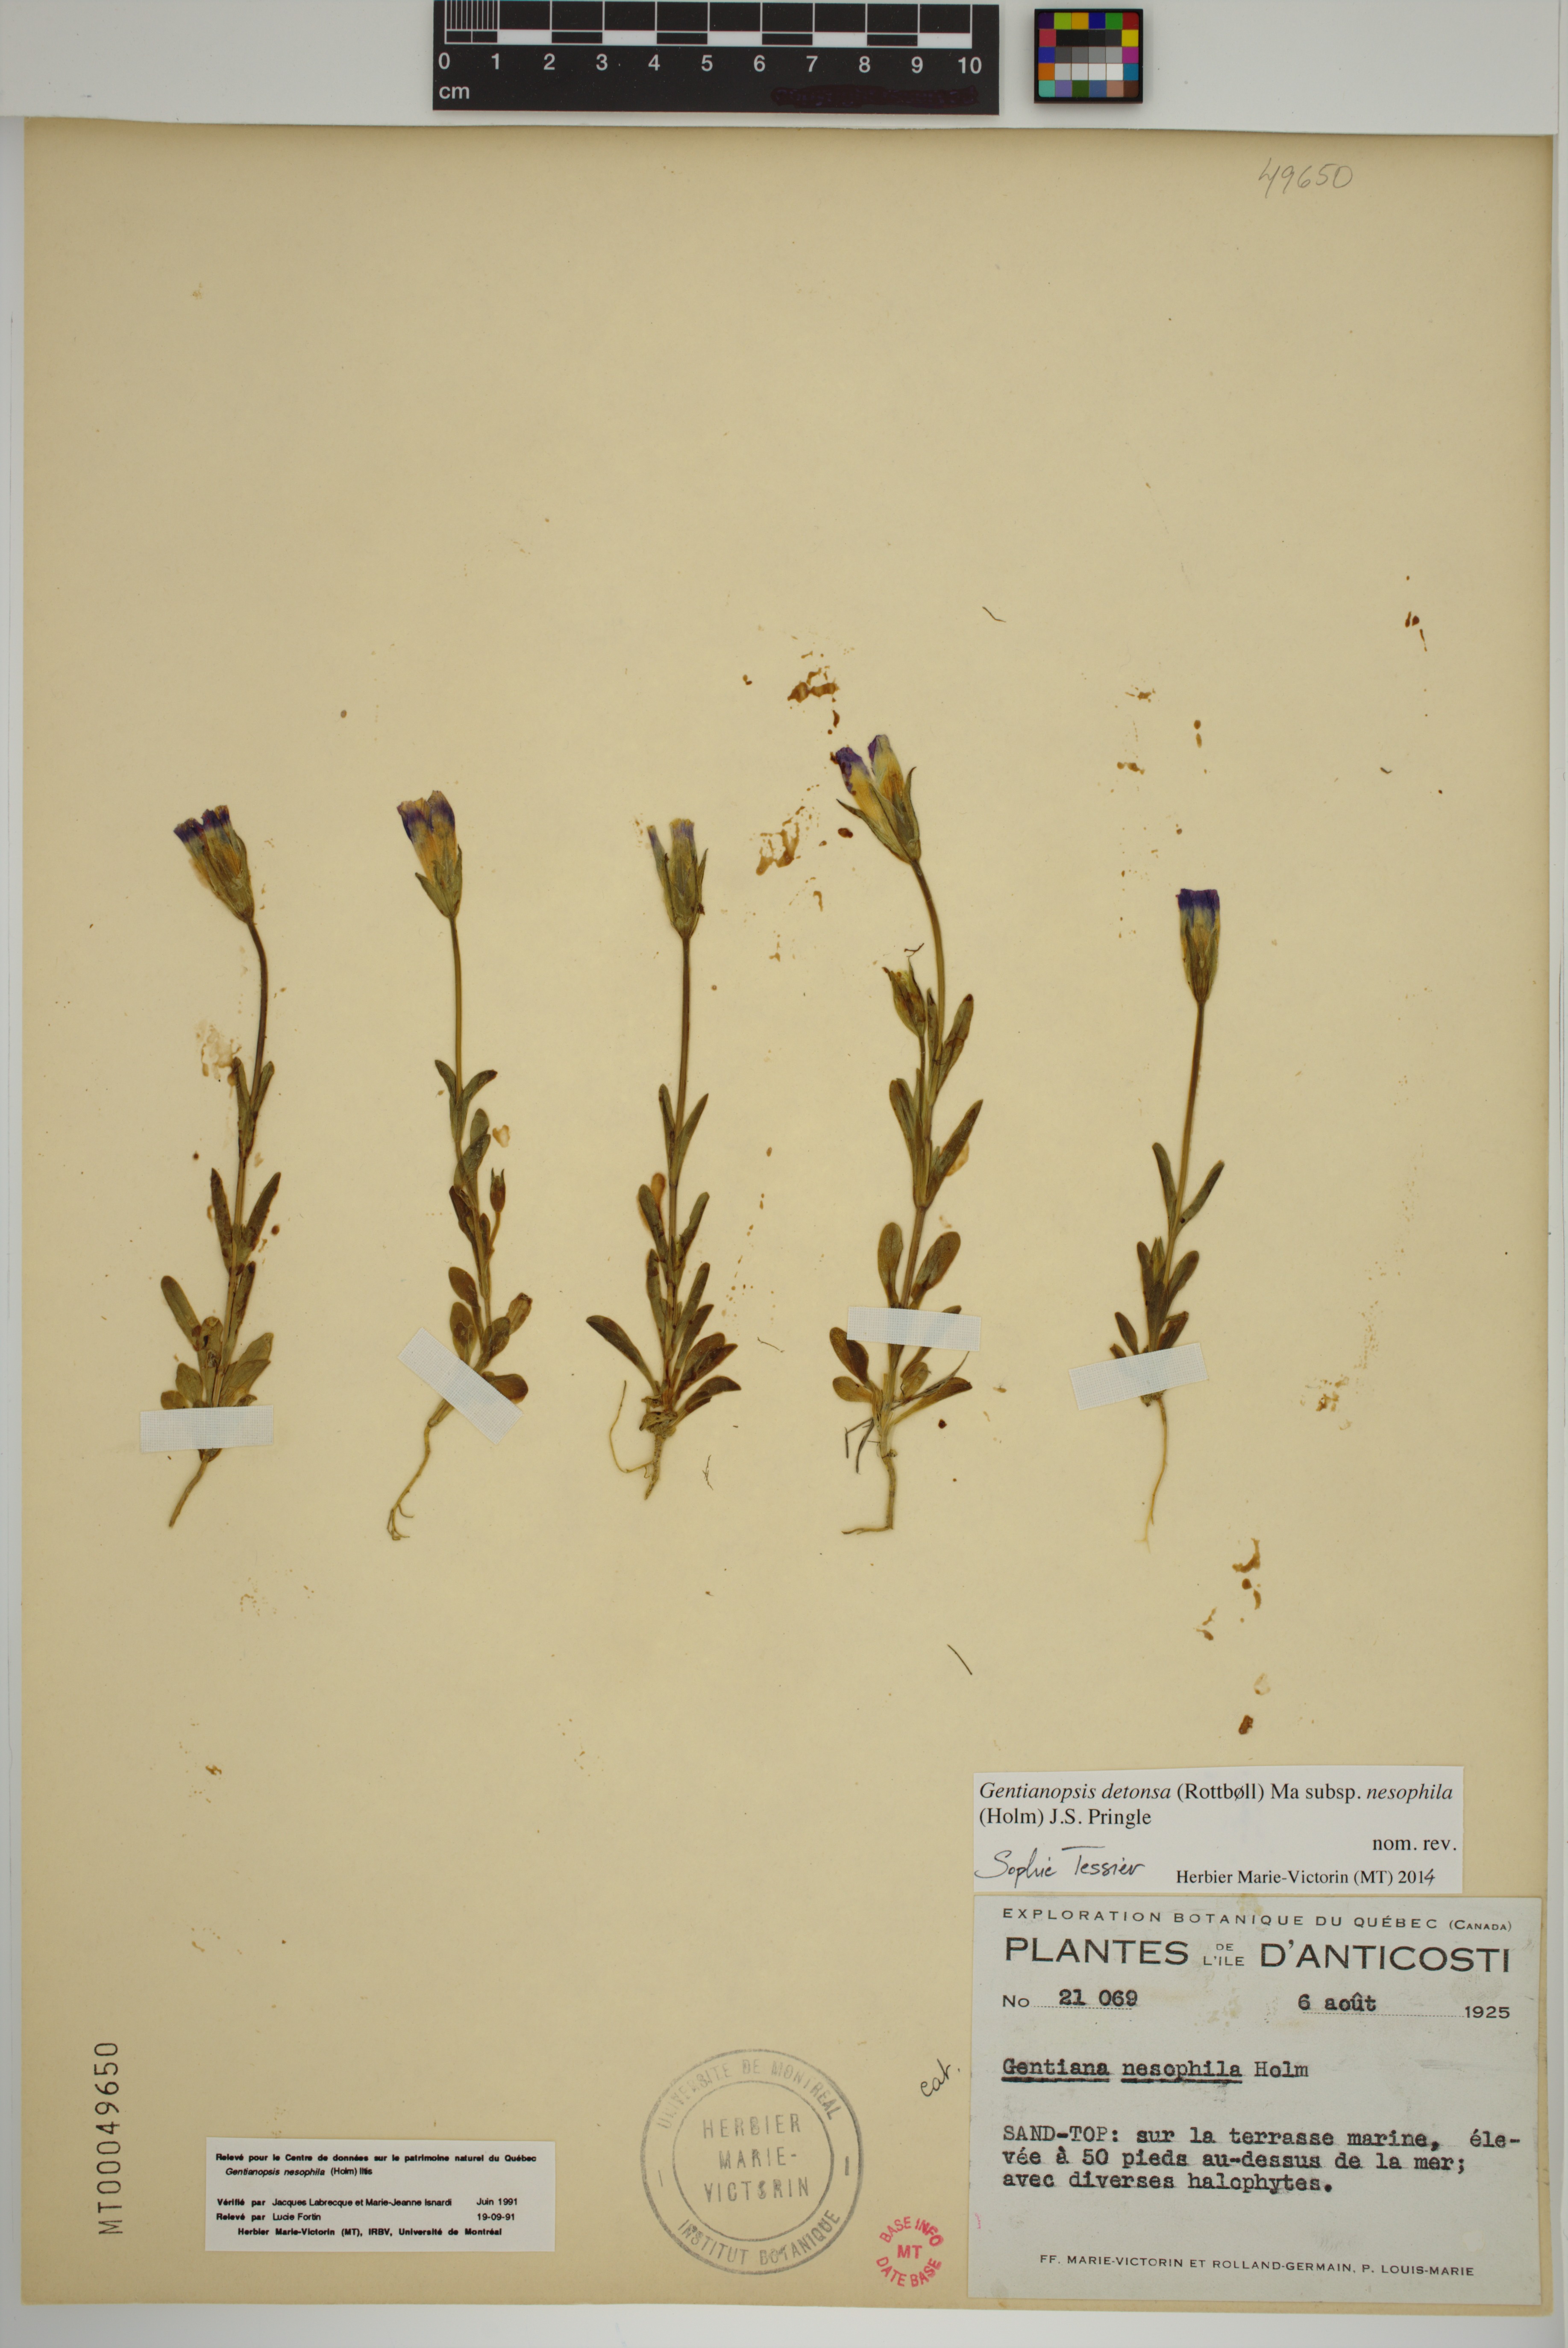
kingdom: Plantae
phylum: Tracheophyta
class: Magnoliopsida
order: Gentianales
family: Gentianaceae
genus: Gentianopsis
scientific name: Gentianopsis nesophila
